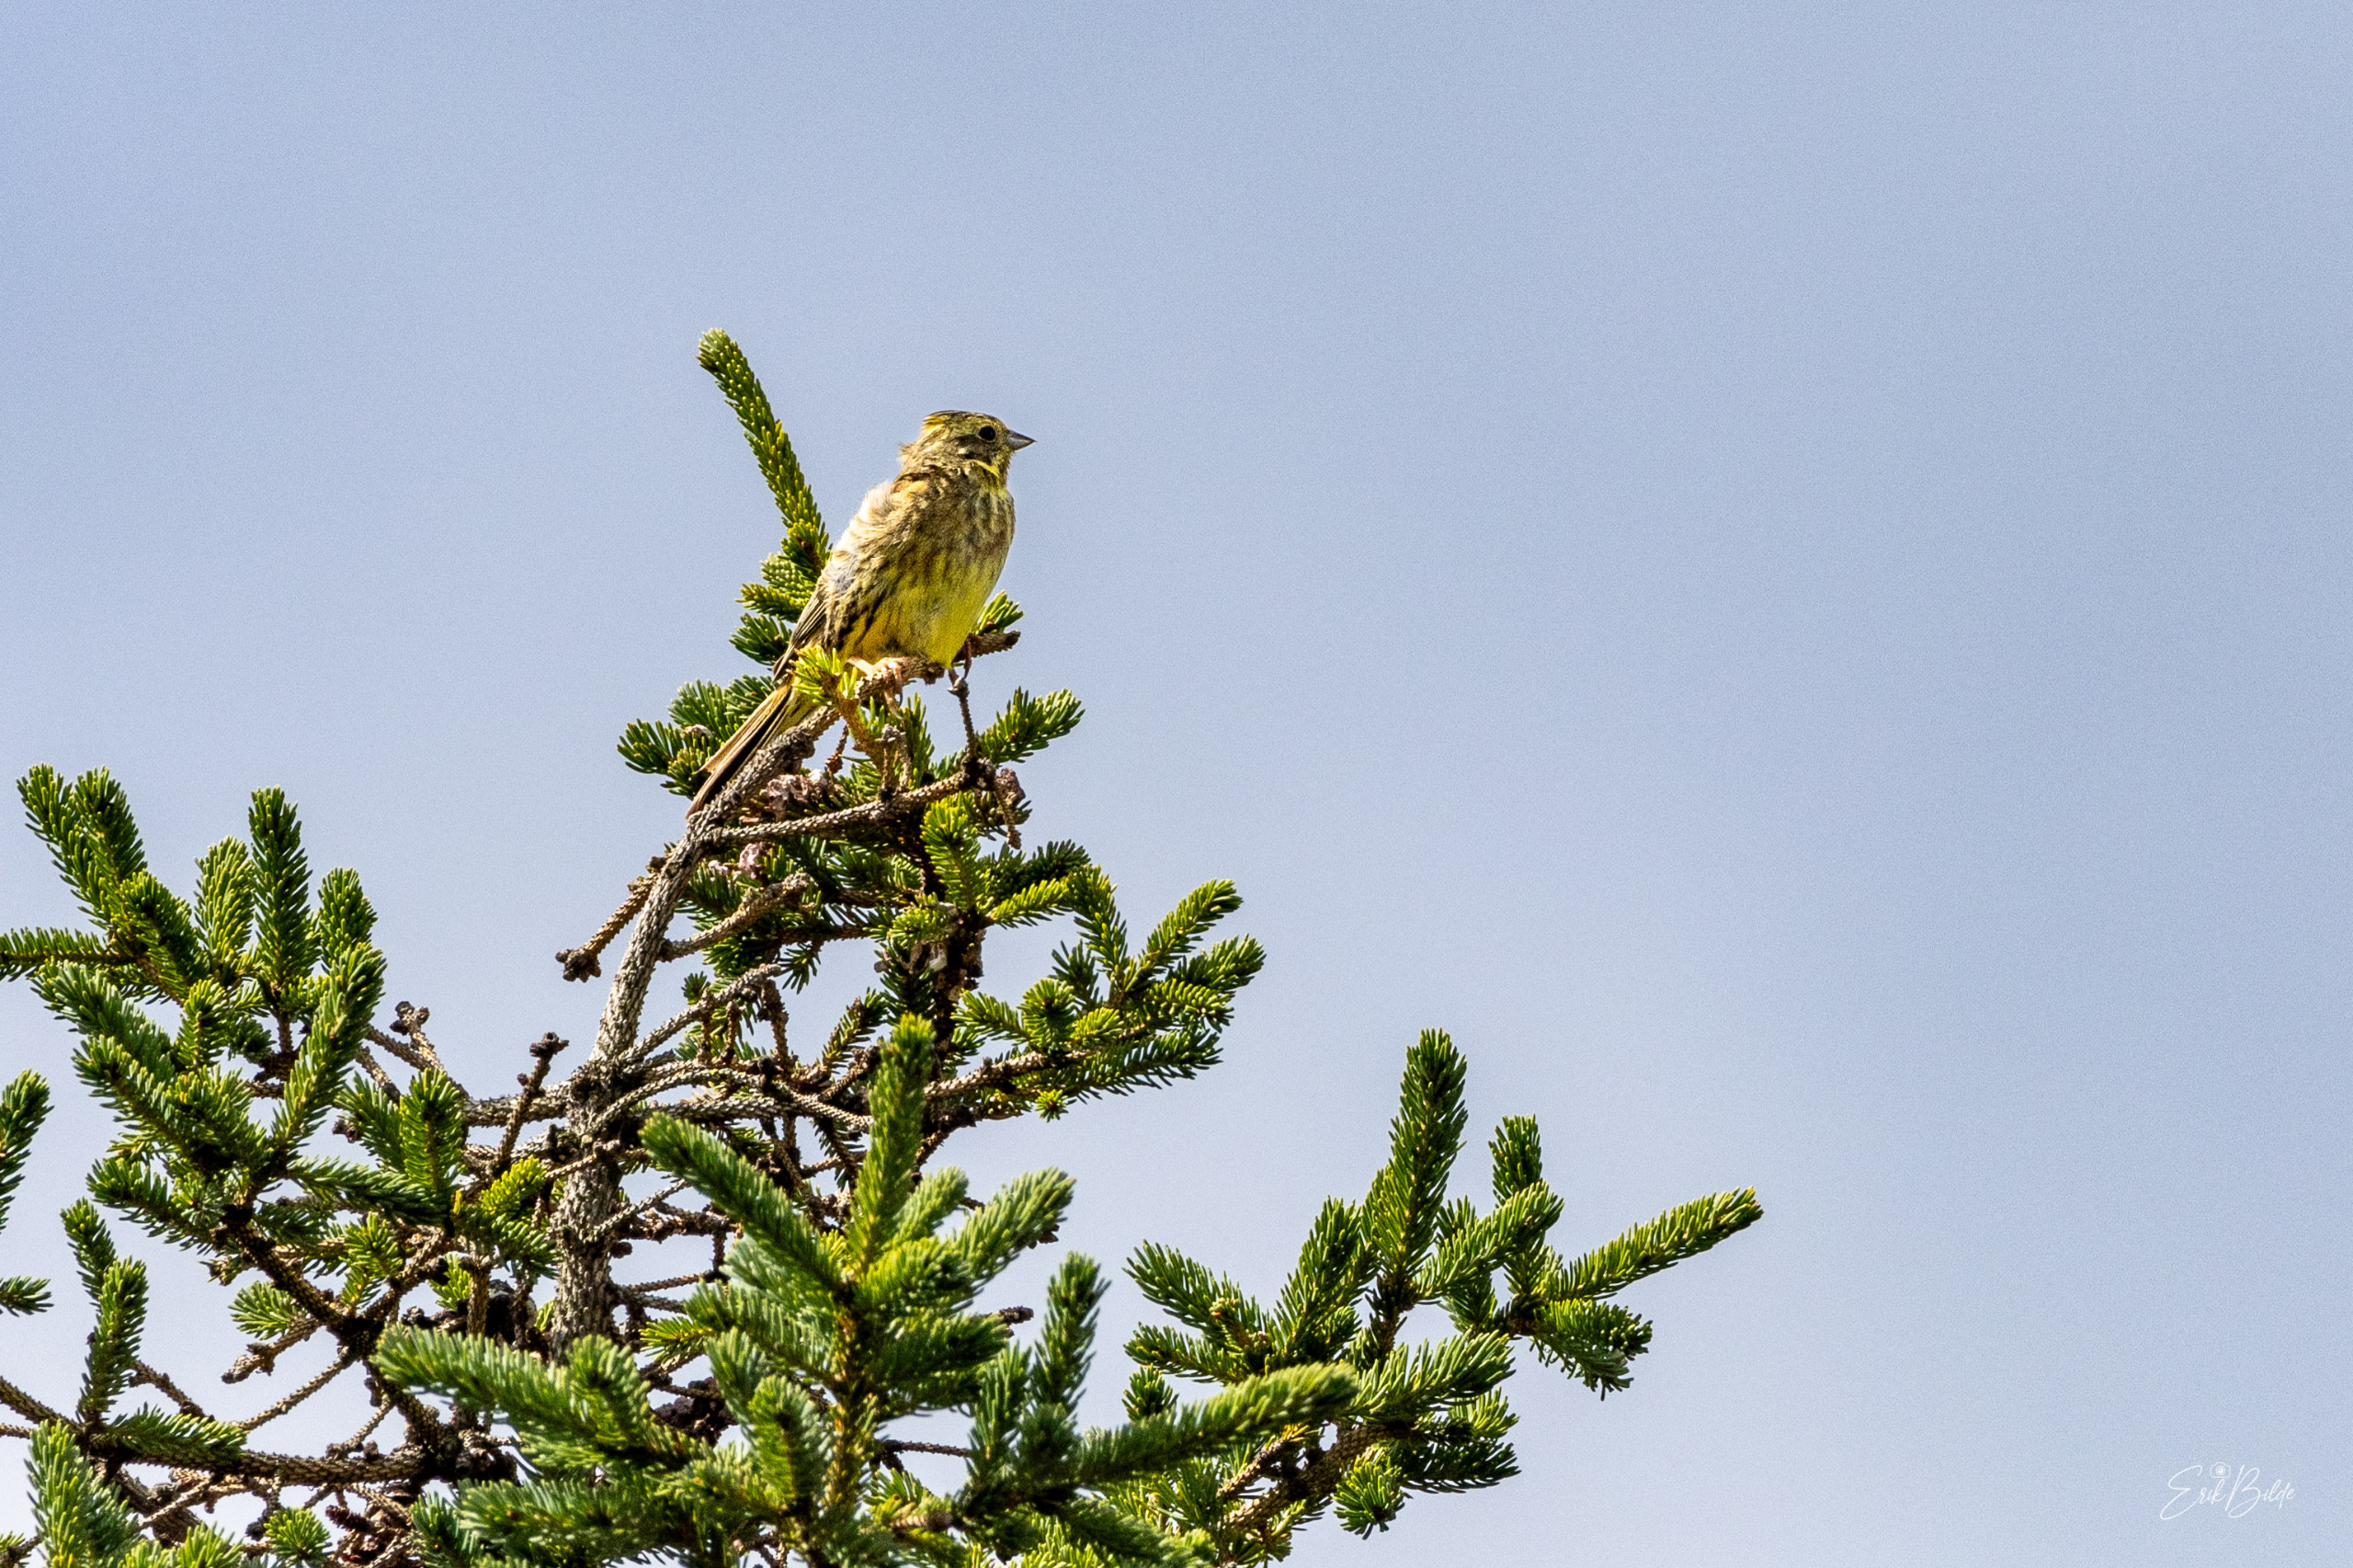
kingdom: Animalia
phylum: Chordata
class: Aves
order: Passeriformes
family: Emberizidae
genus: Emberiza
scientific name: Emberiza citrinella
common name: Gulspurv
